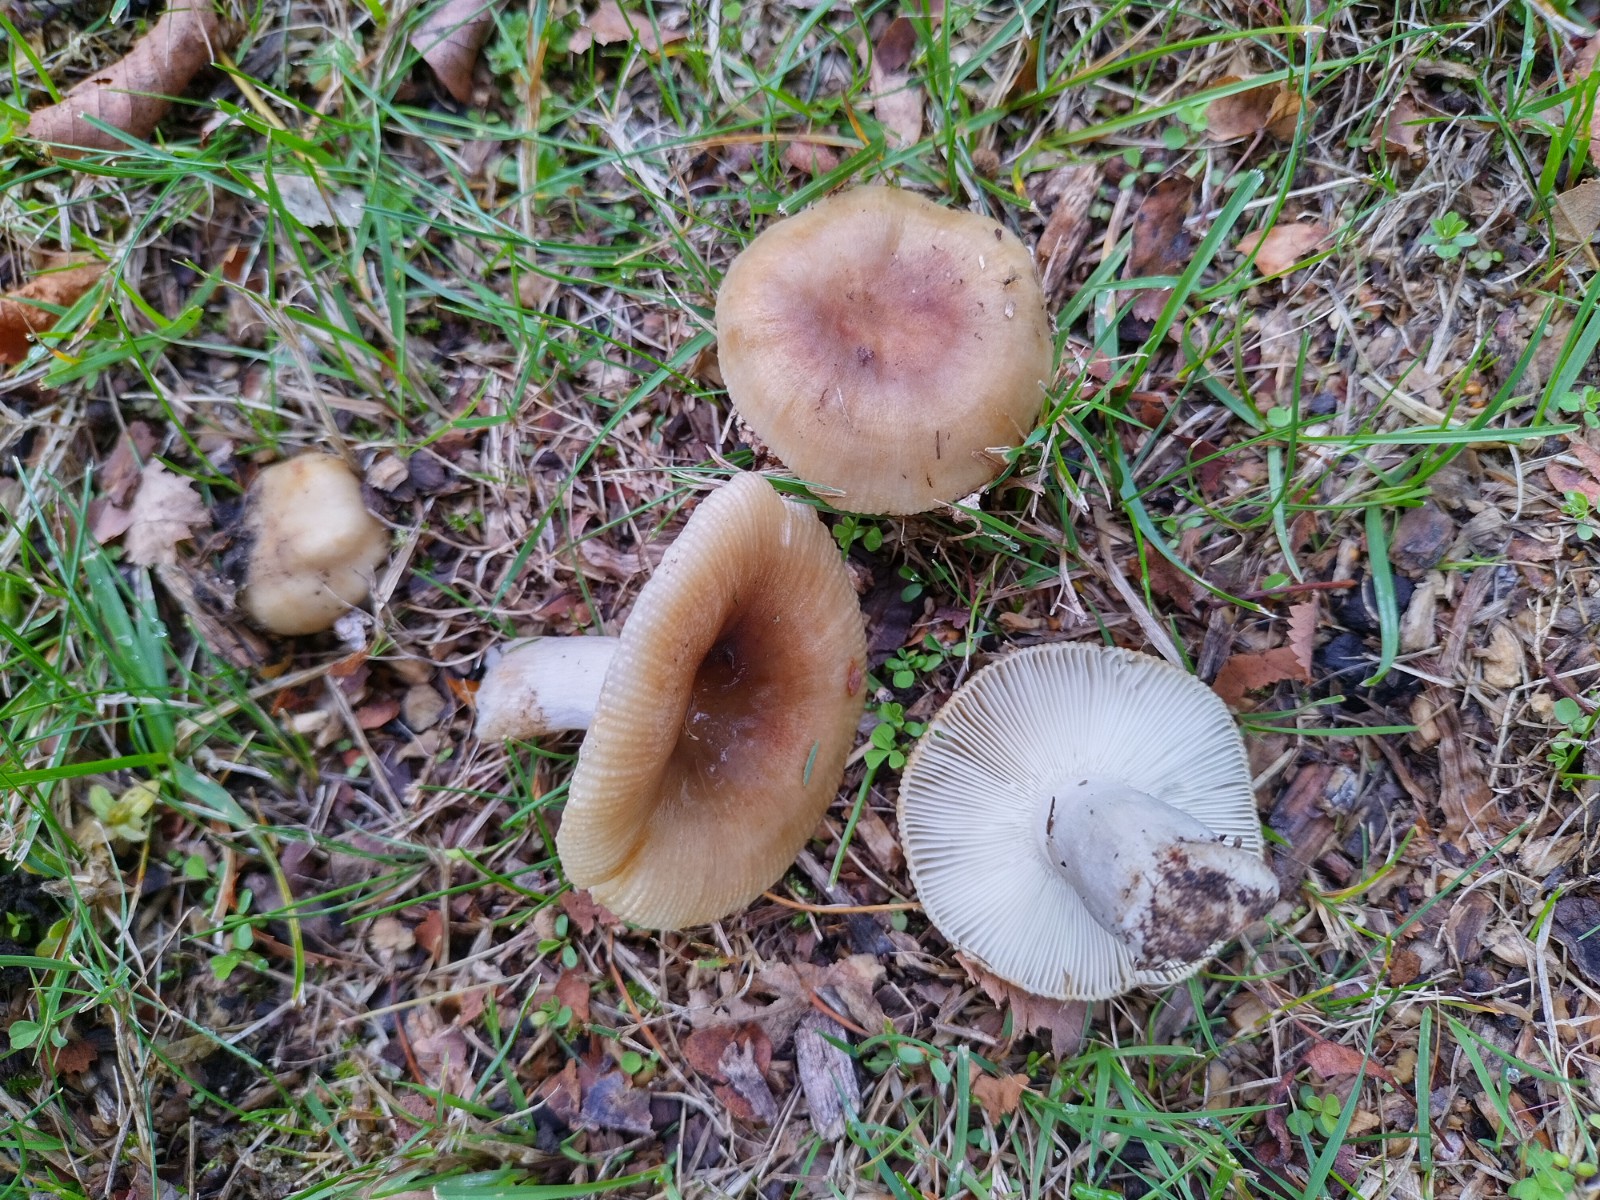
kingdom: Fungi
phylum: Basidiomycota
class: Agaricomycetes
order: Russulales
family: Russulaceae
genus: Russula
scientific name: Russula recondita
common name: mild kam-skørhat
